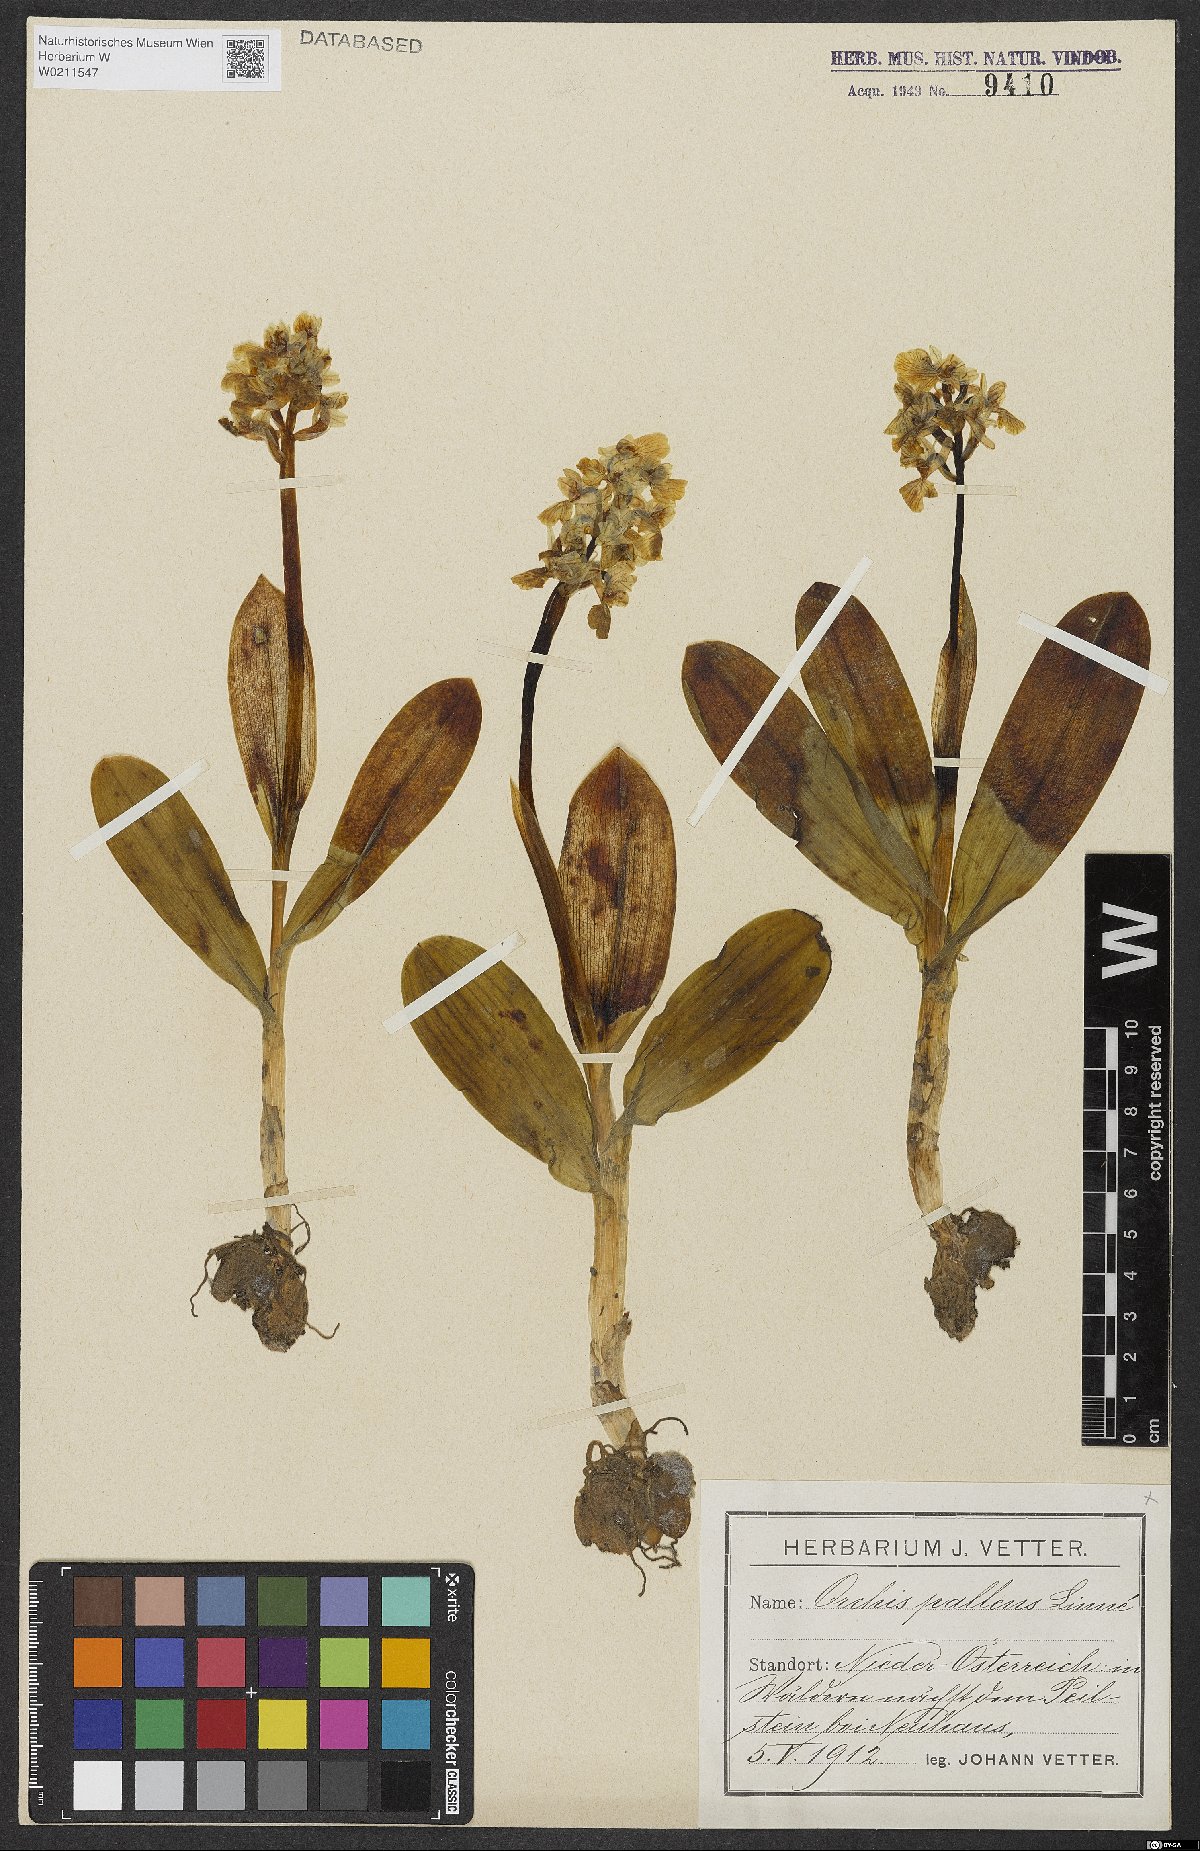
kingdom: Plantae
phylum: Tracheophyta
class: Liliopsida
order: Asparagales
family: Orchidaceae
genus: Orchis
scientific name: Orchis pallens
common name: Pale-flowered orchid
